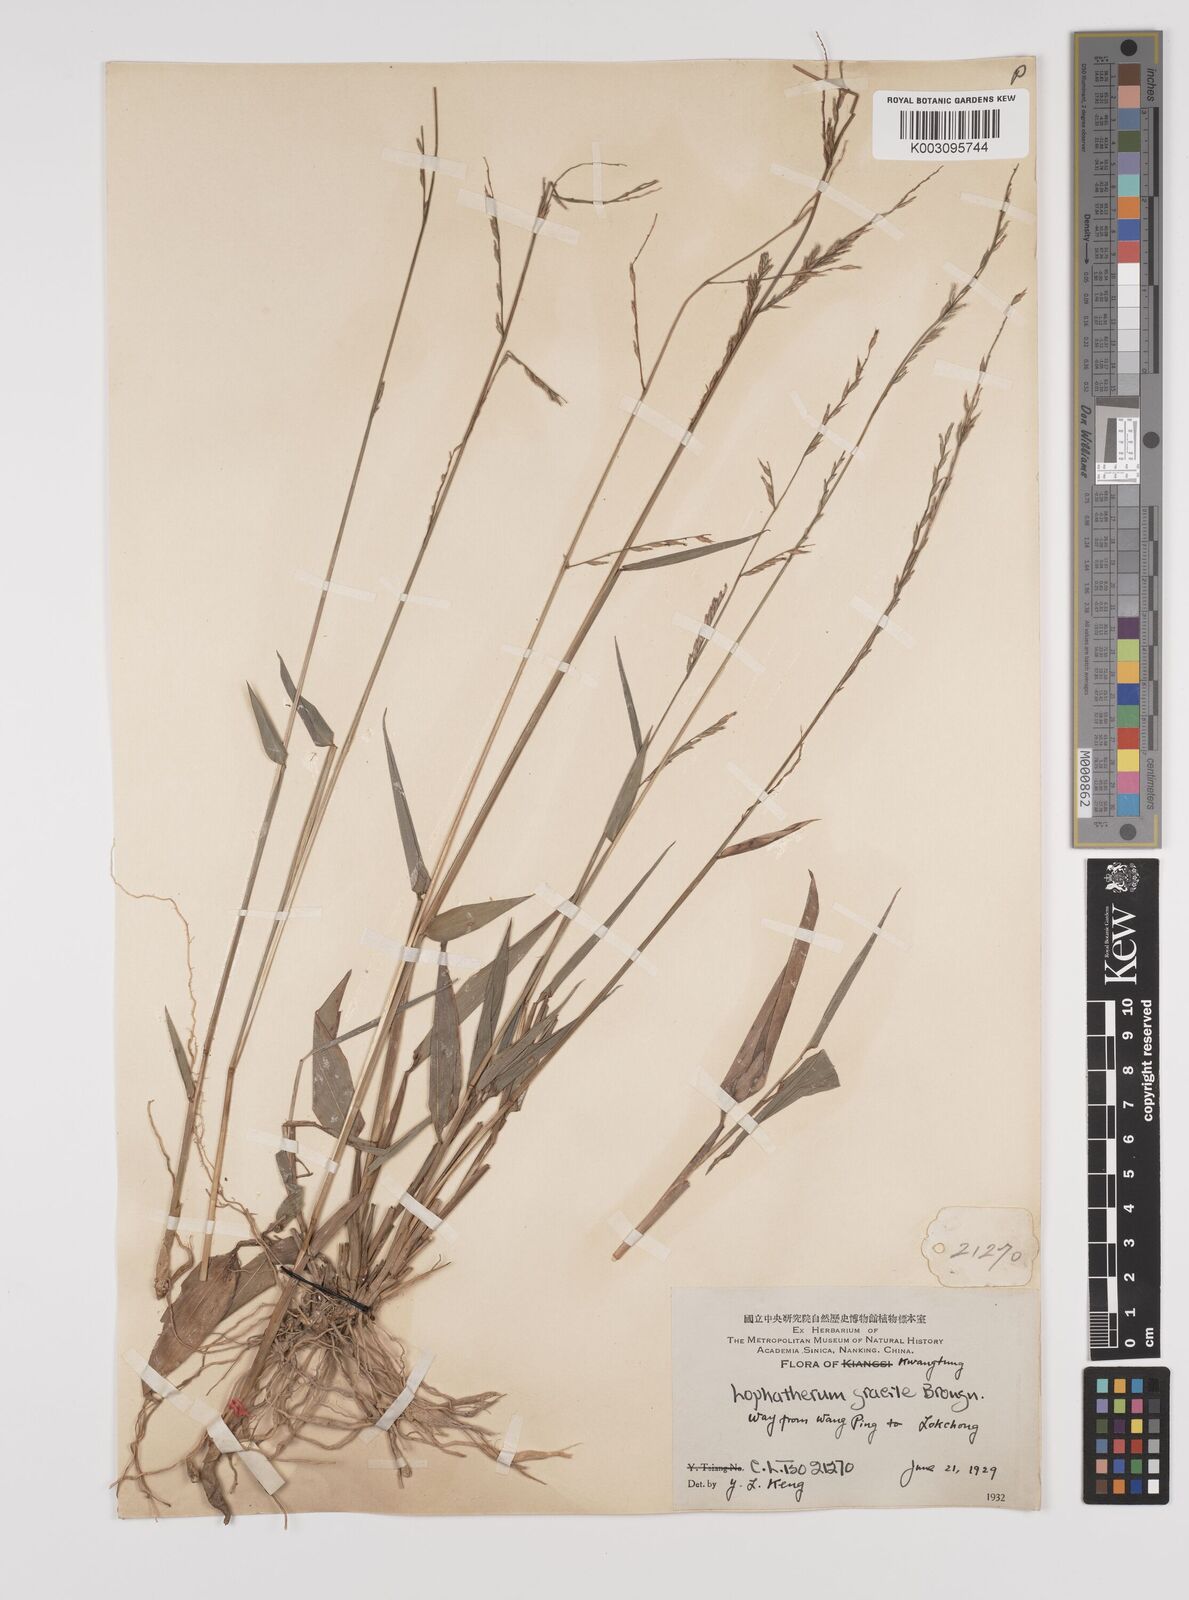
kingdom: Plantae
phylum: Tracheophyta
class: Liliopsida
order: Poales
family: Poaceae
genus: Lophatherum
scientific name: Lophatherum gracile
